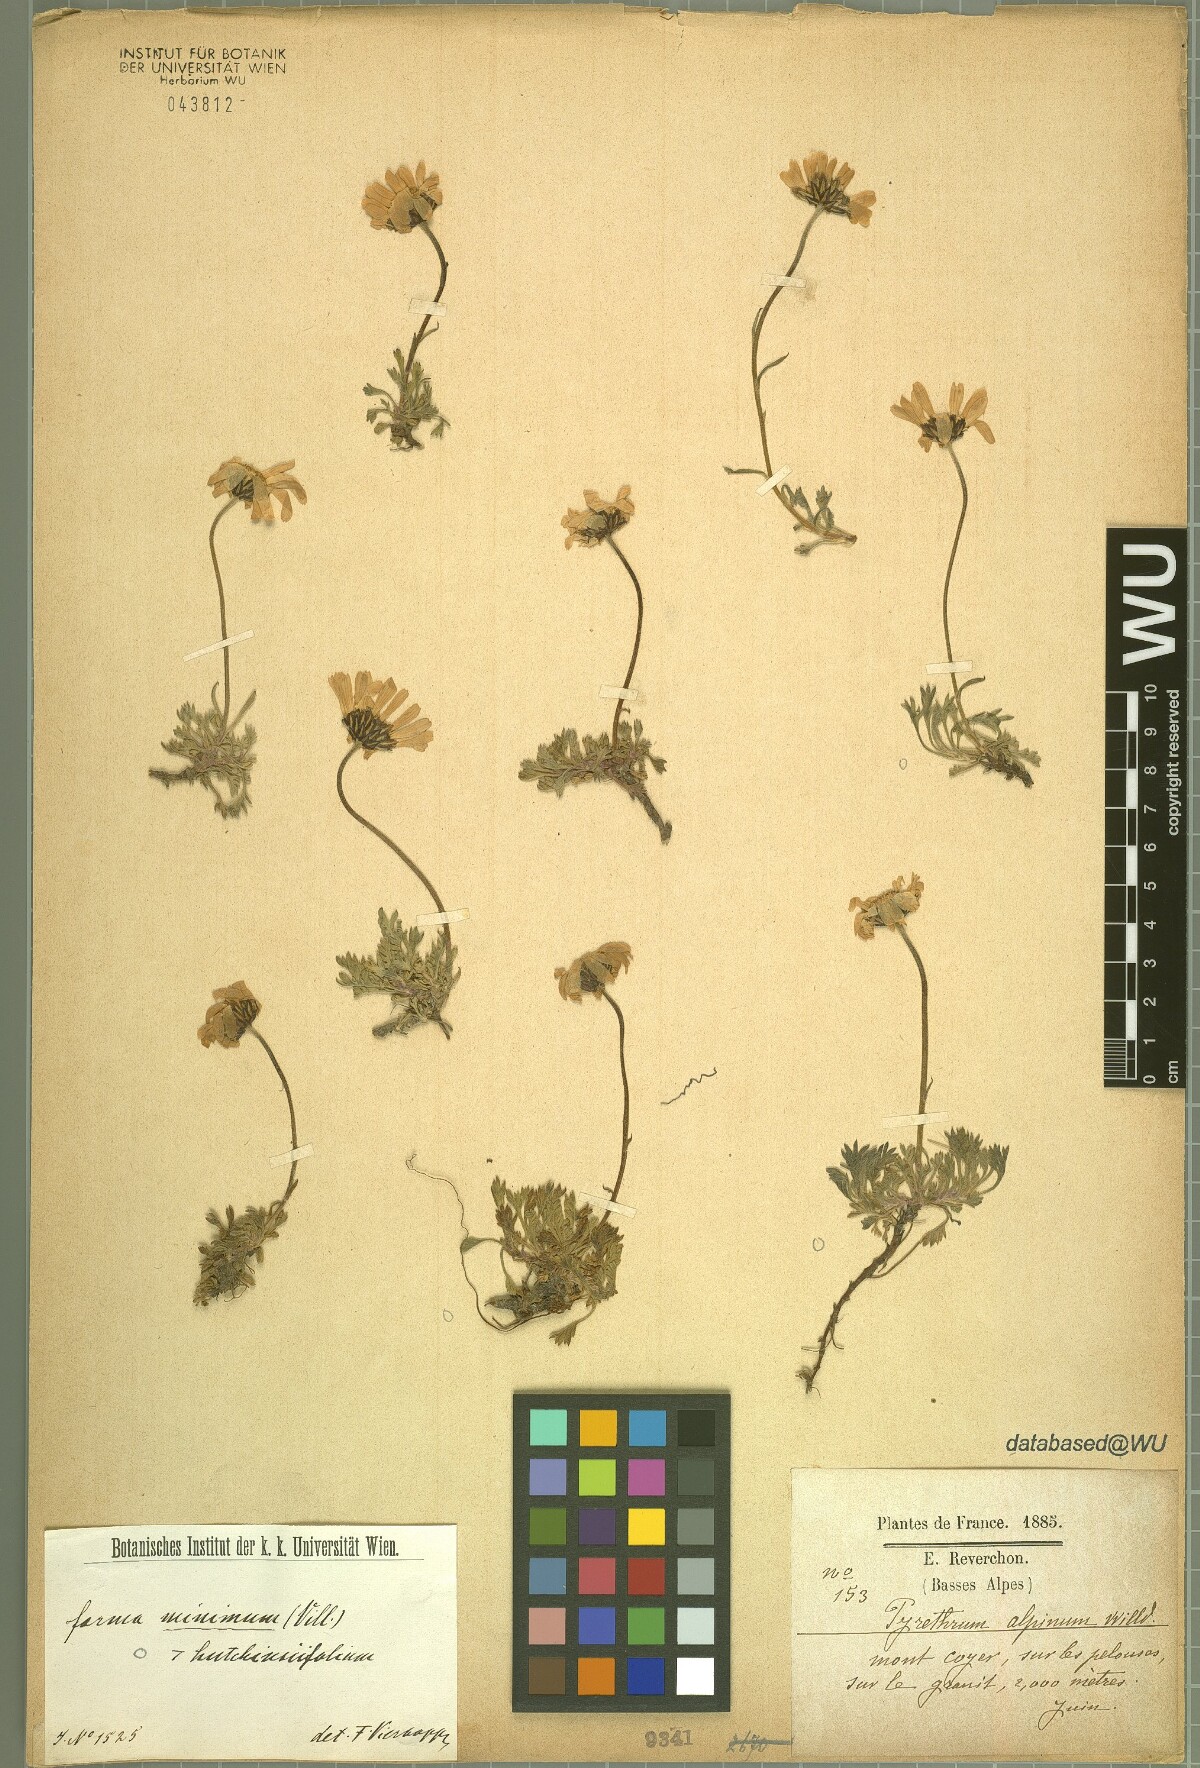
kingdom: Plantae
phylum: Tracheophyta
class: Magnoliopsida
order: Asterales
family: Asteraceae
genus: Leucanthemopsis
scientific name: Leucanthemopsis alpina
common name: Alpine moon daisy
